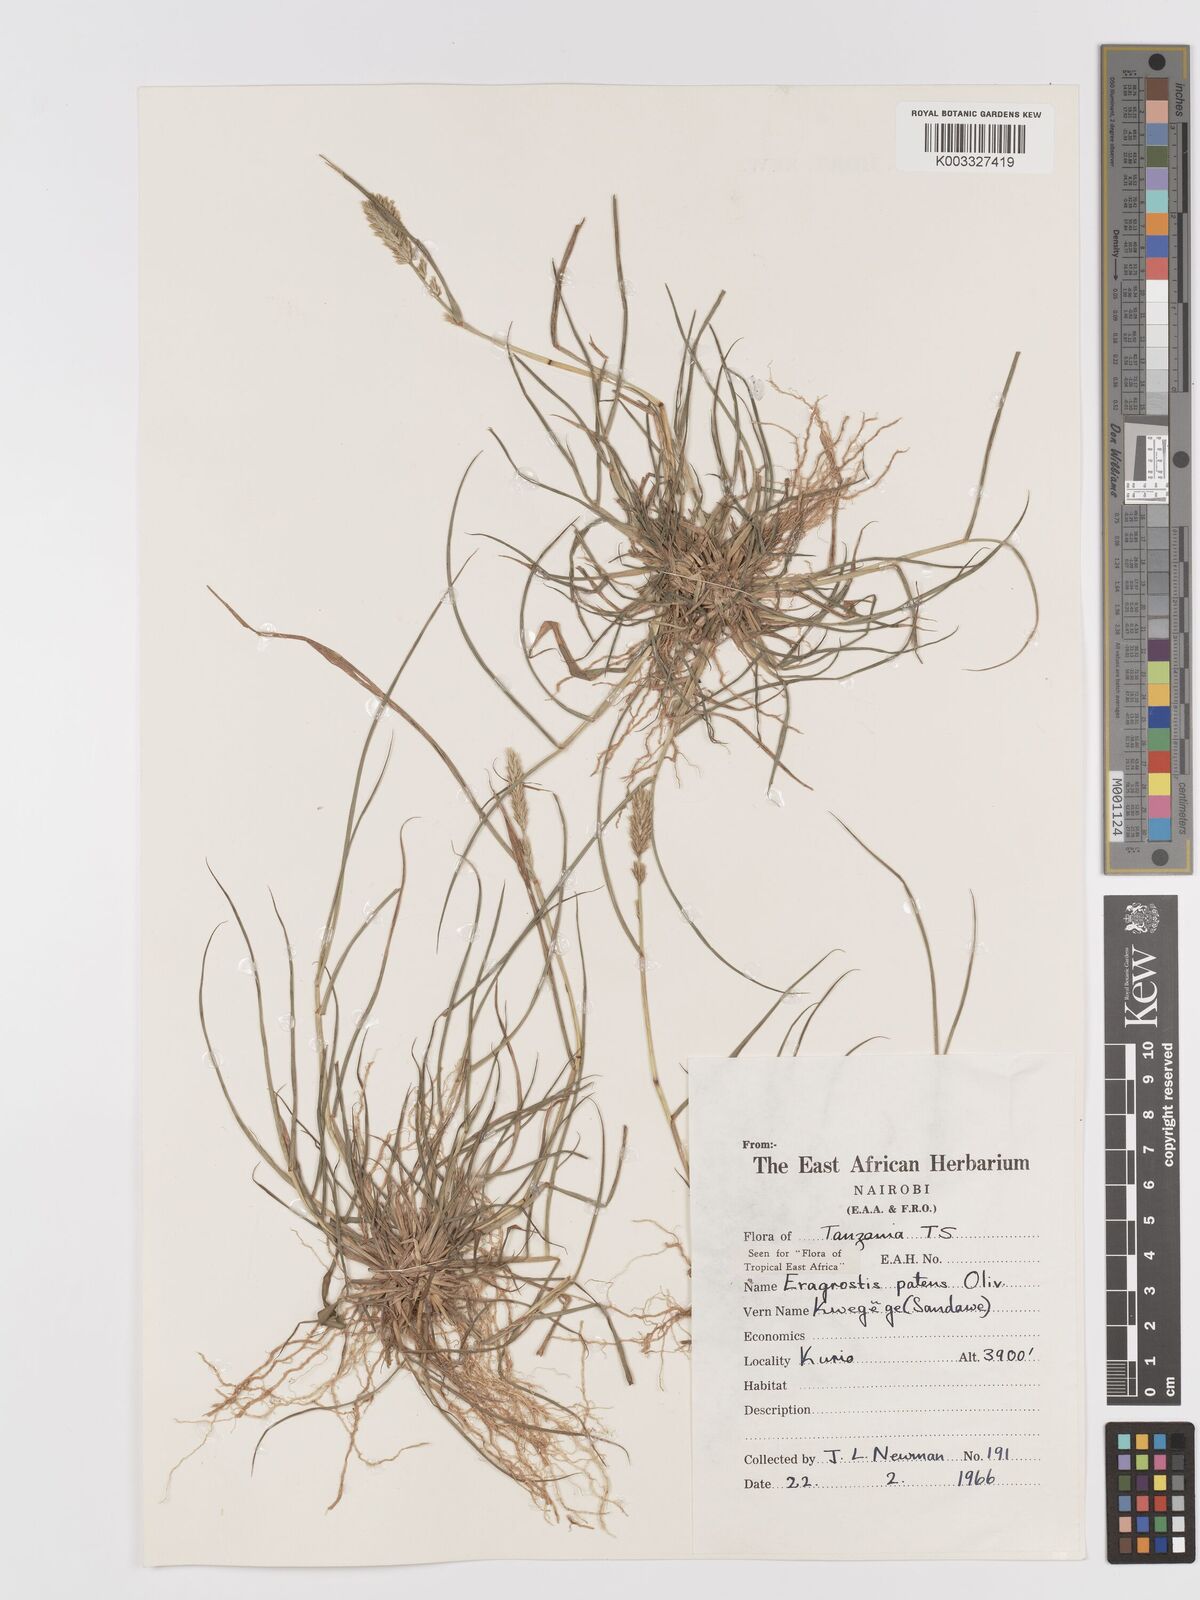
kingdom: Plantae
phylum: Tracheophyta
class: Liliopsida
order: Poales
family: Poaceae
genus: Eragrostis
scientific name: Eragrostis patens
